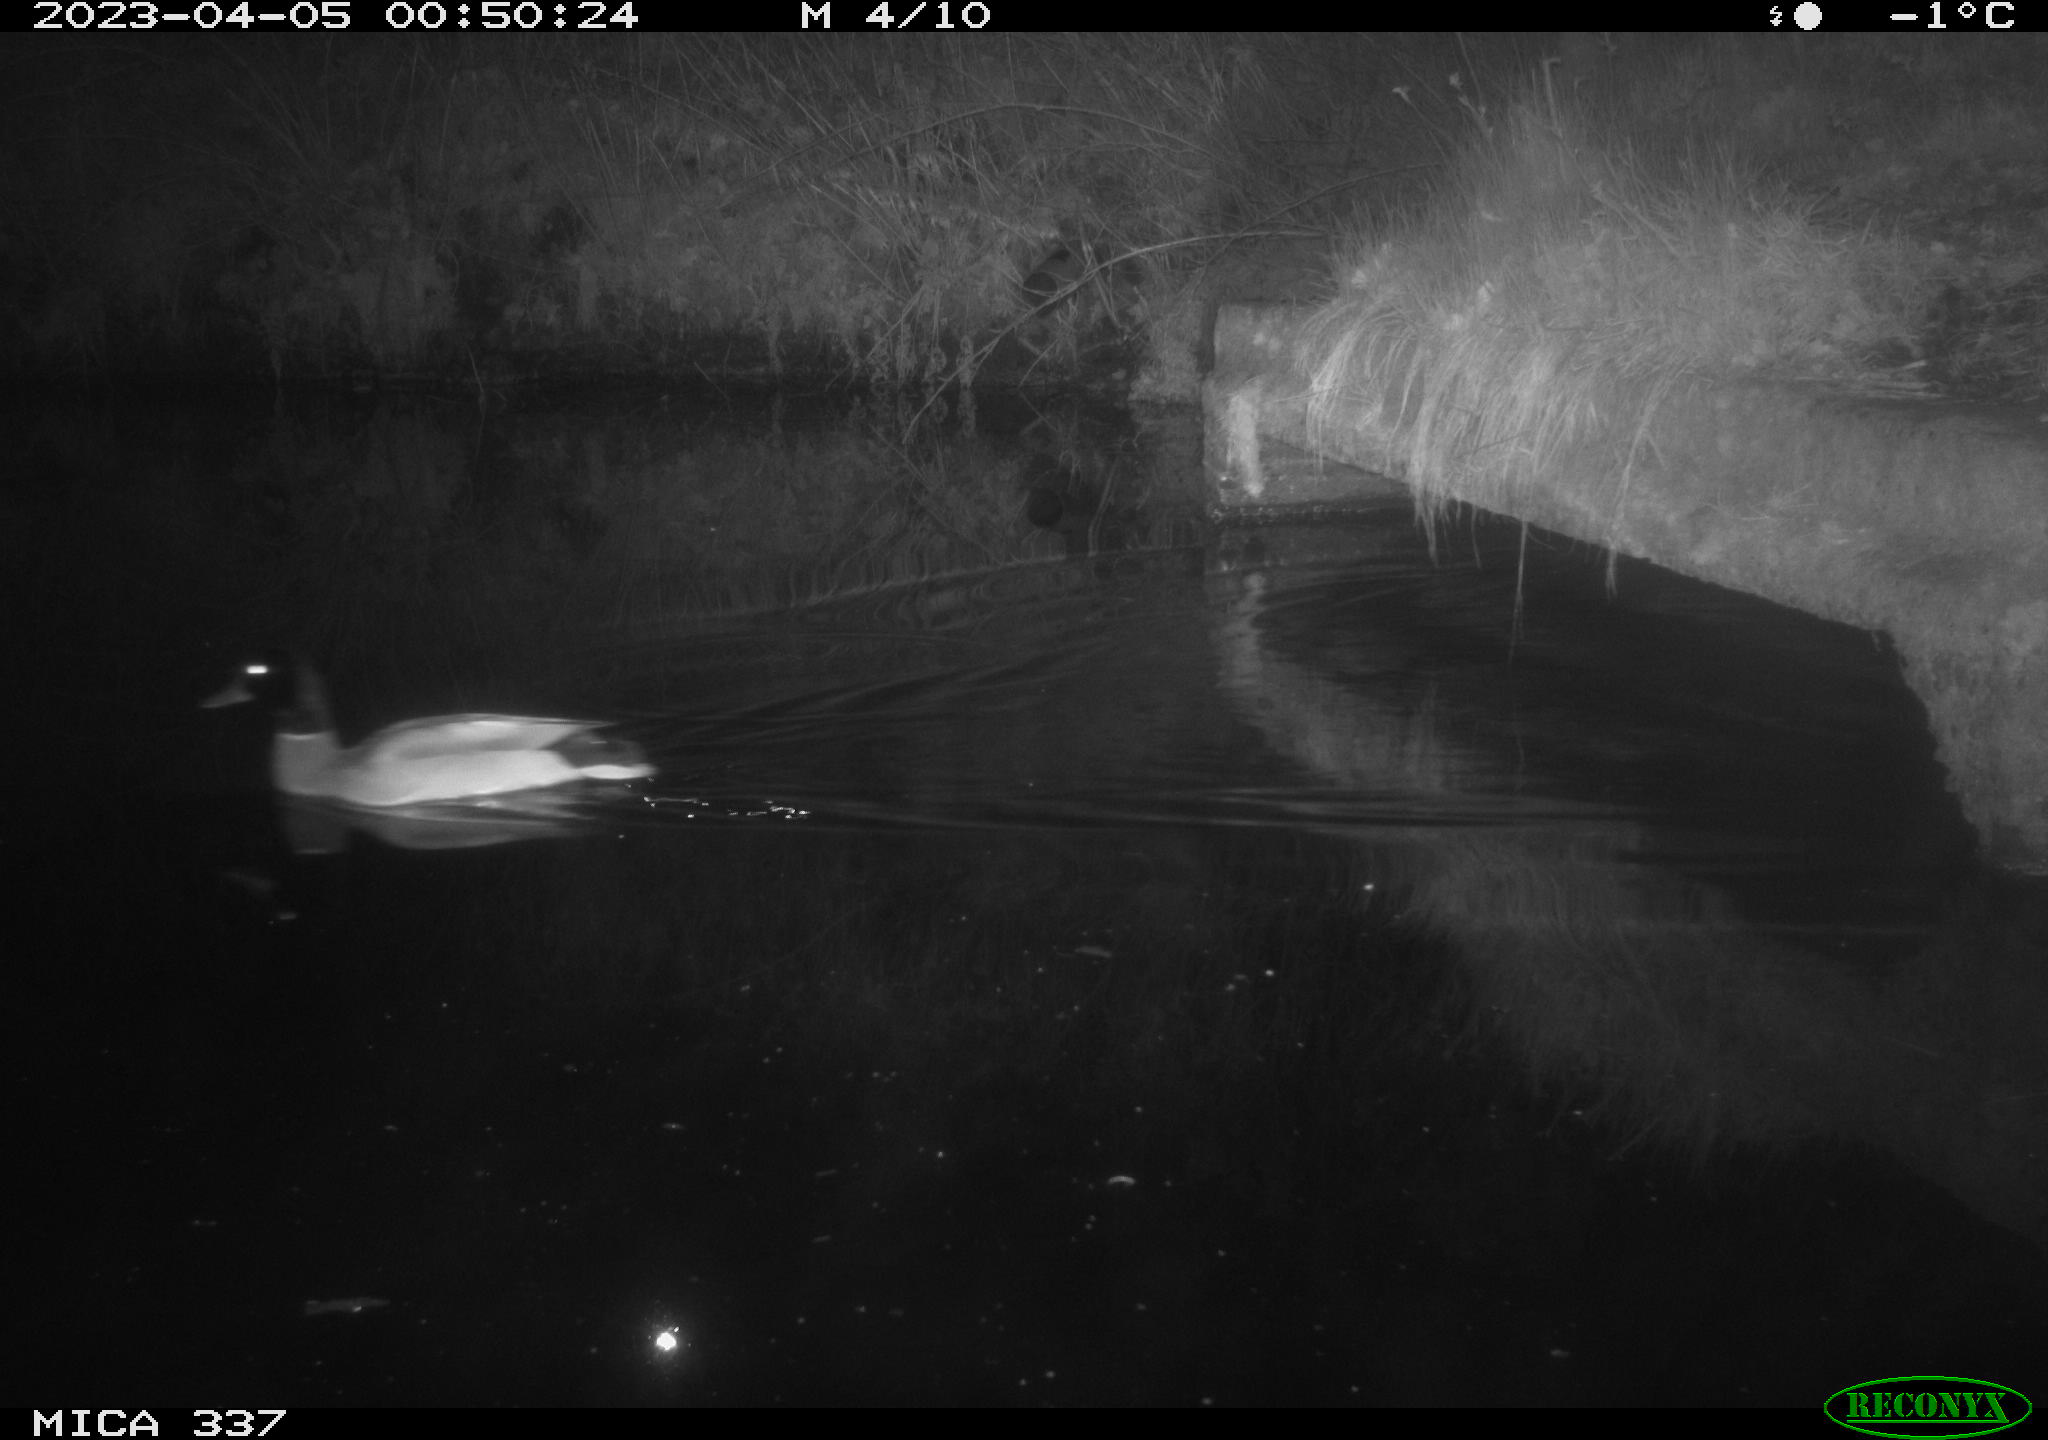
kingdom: Animalia
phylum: Chordata
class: Aves
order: Anseriformes
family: Anatidae
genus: Anas
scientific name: Anas
